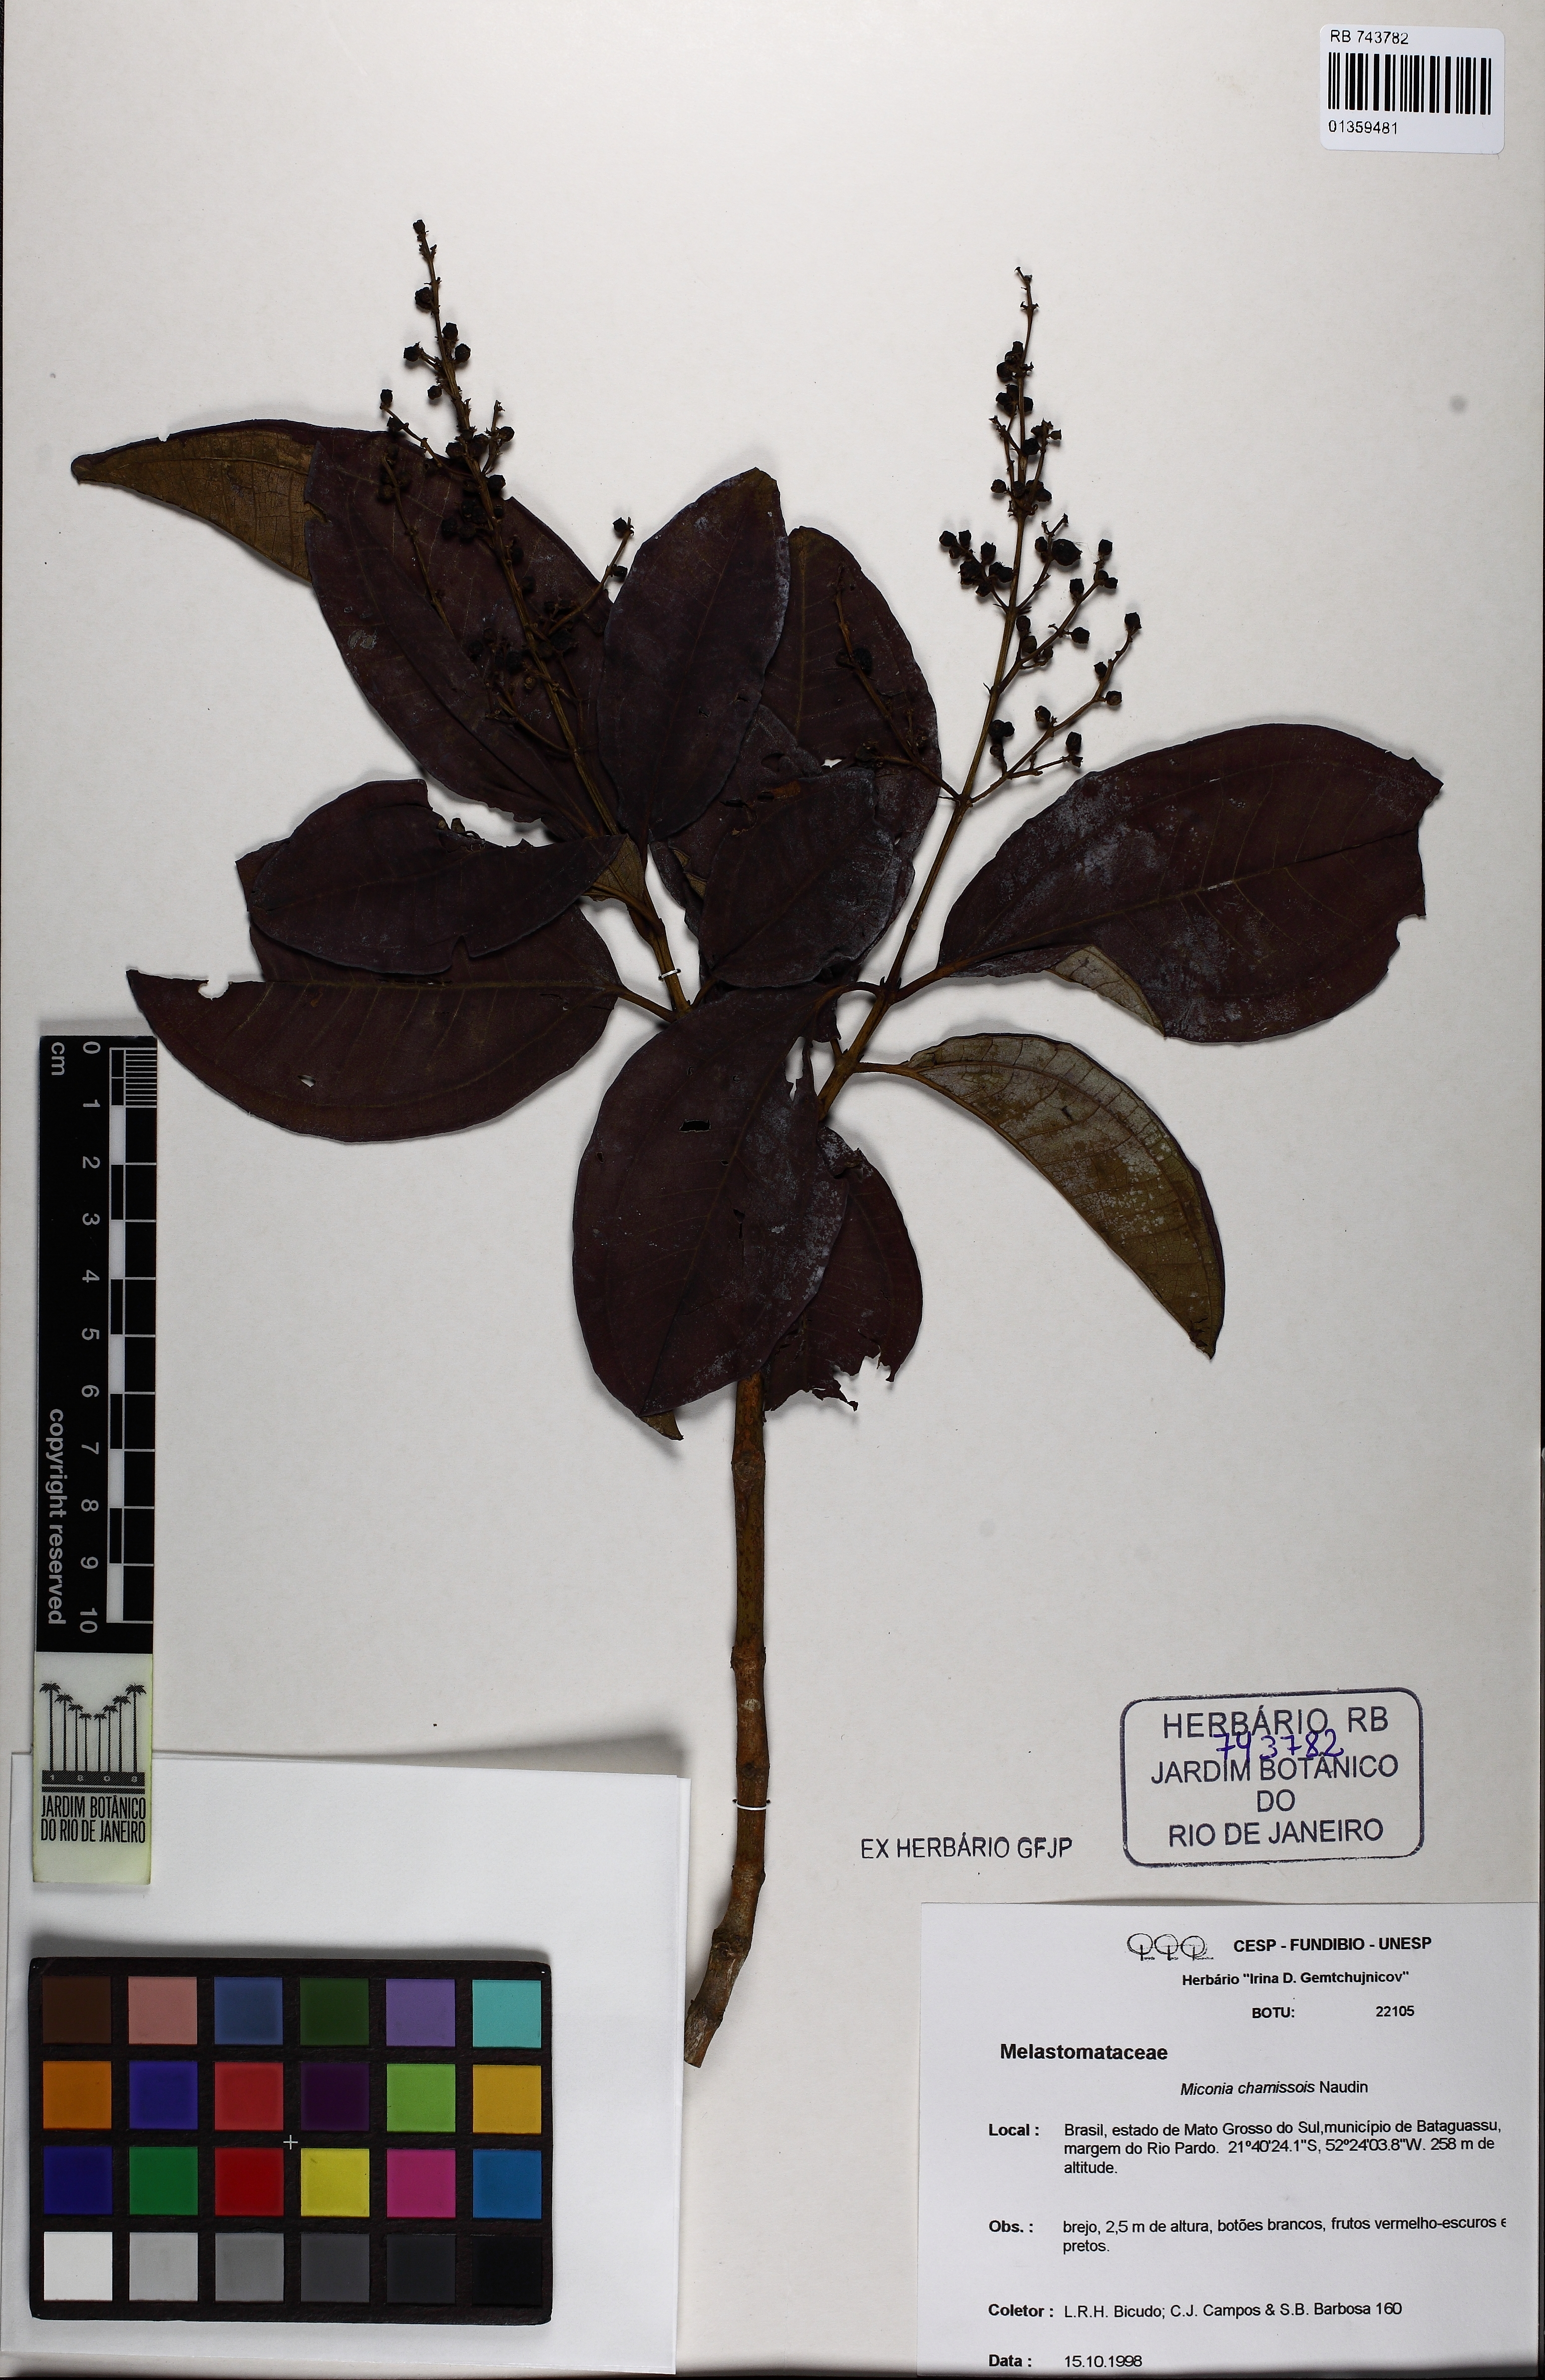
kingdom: Plantae
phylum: Tracheophyta
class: Magnoliopsida
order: Myrtales
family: Melastomataceae
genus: Miconia
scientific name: Miconia chamissois
